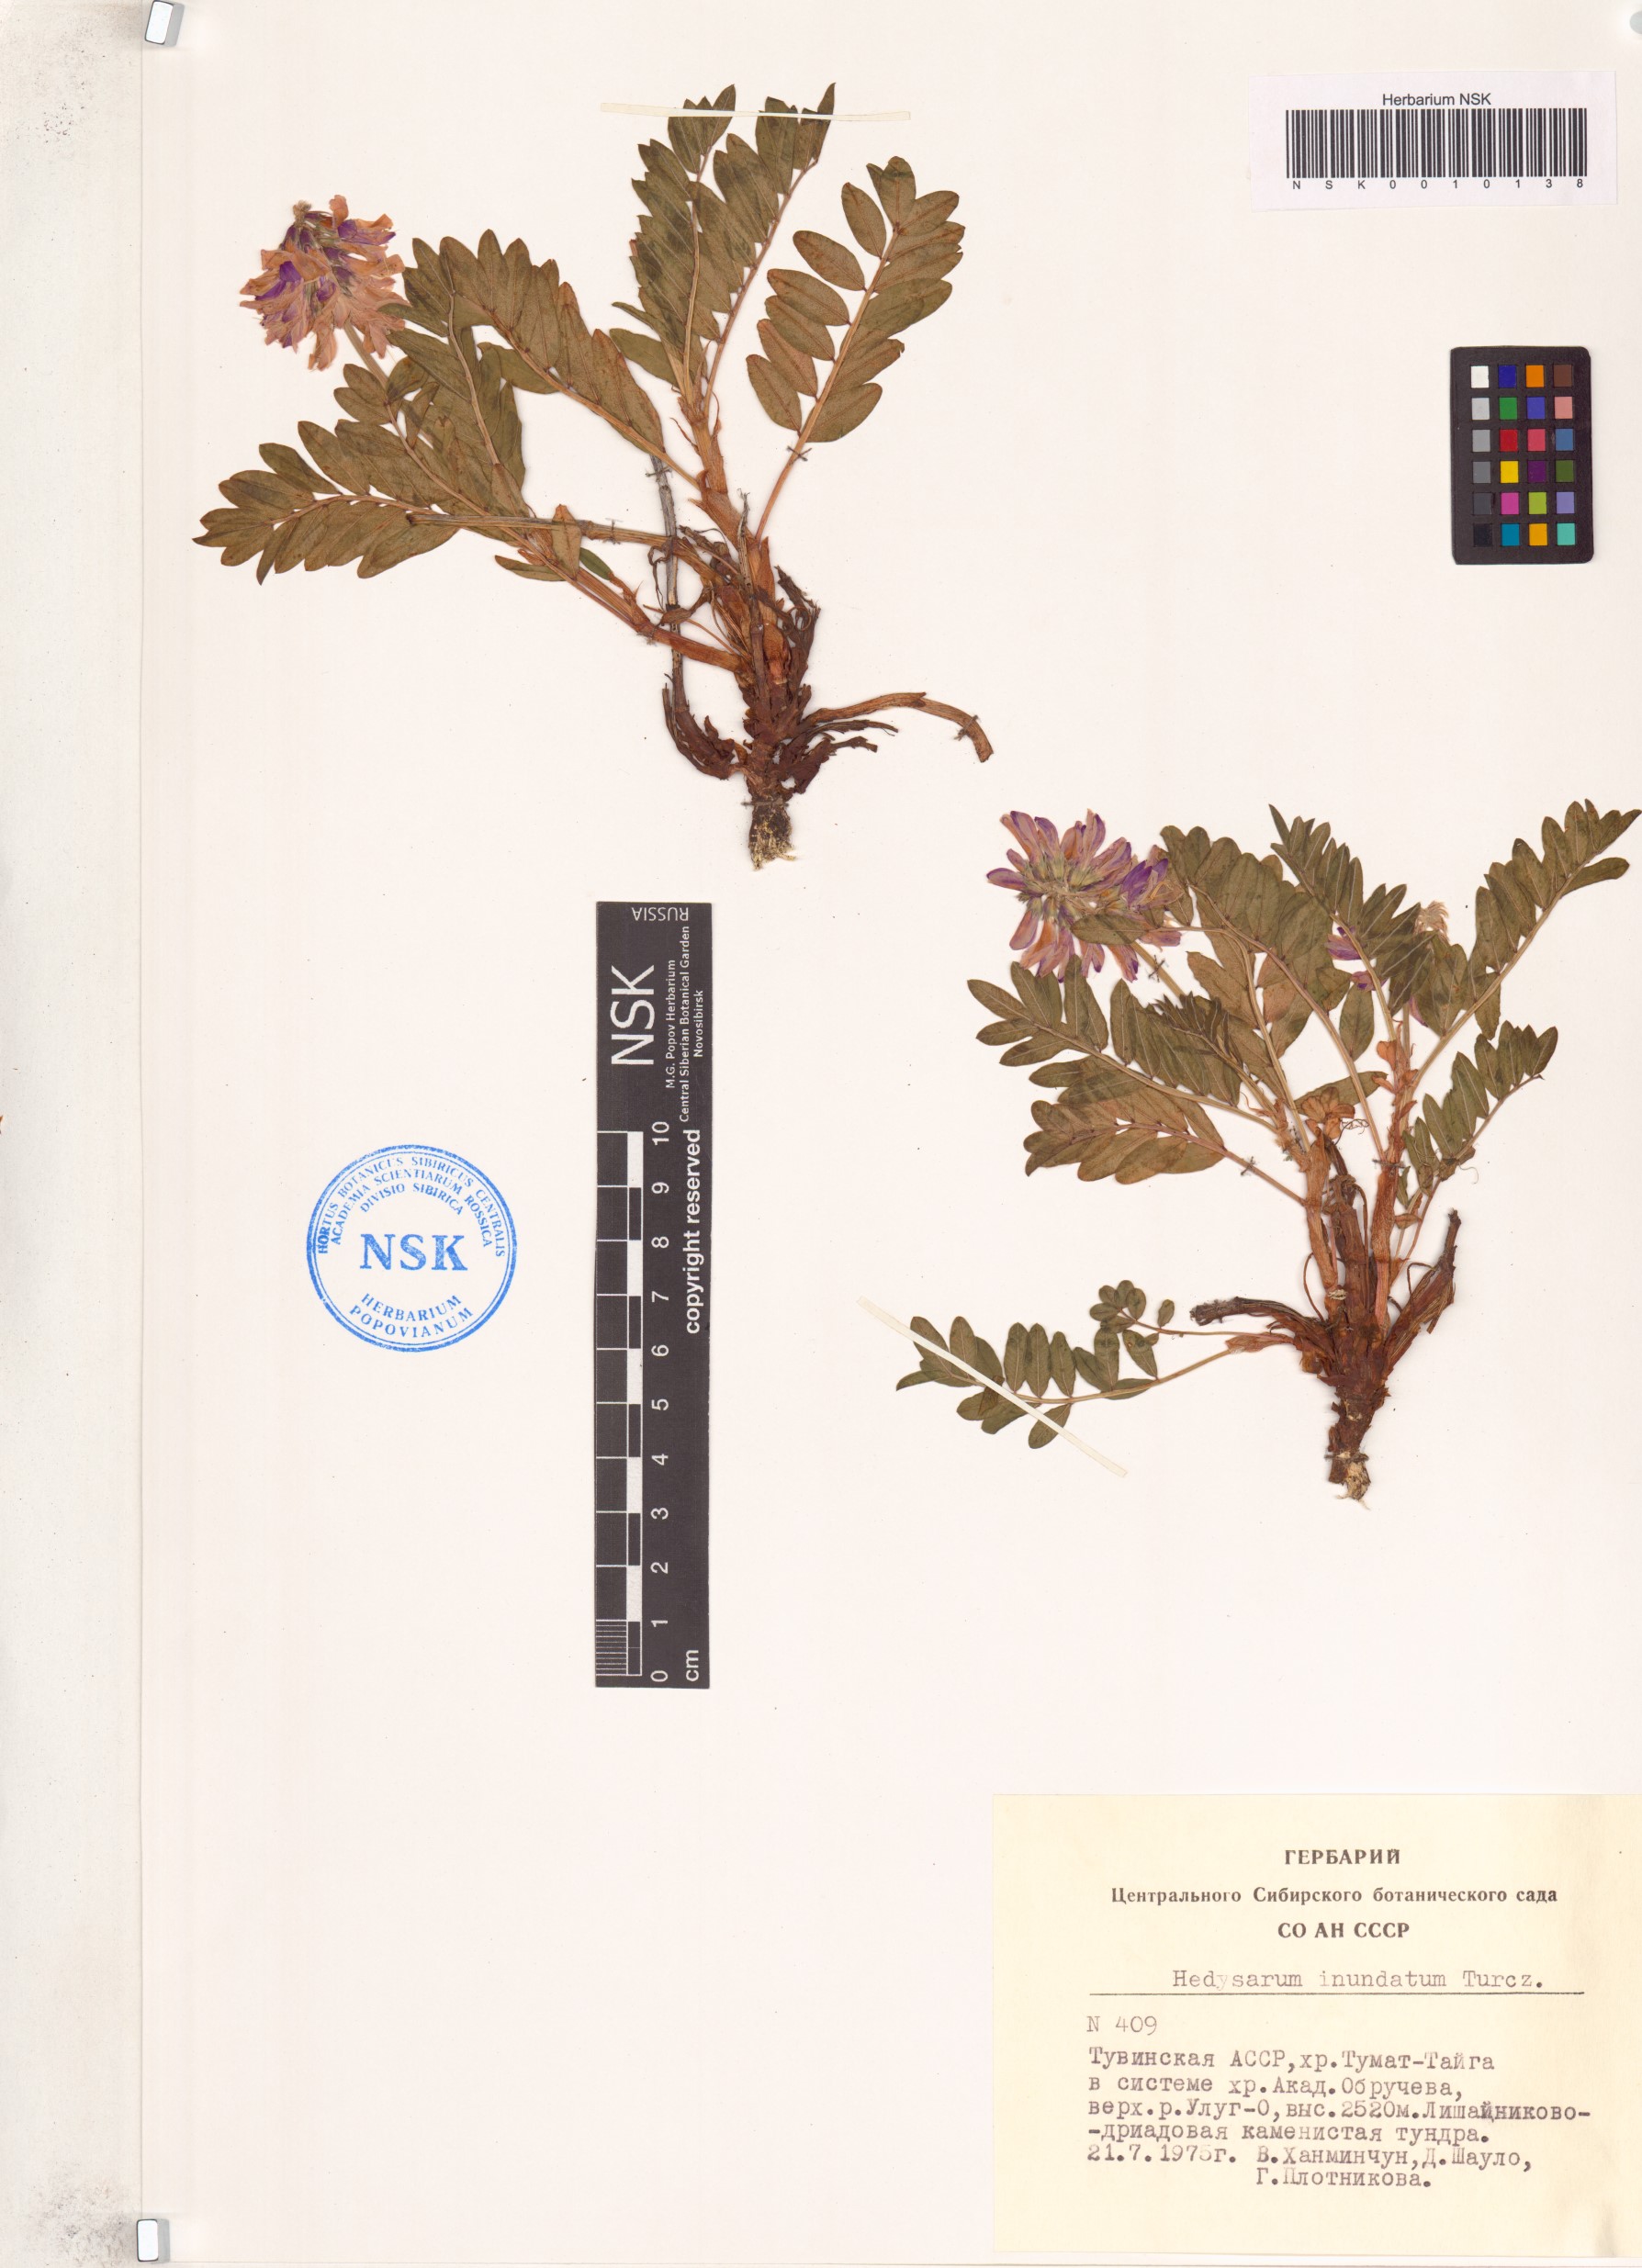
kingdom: Plantae
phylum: Tracheophyta
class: Magnoliopsida
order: Fabales
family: Fabaceae
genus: Hedysarum
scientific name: Hedysarum inundatum
